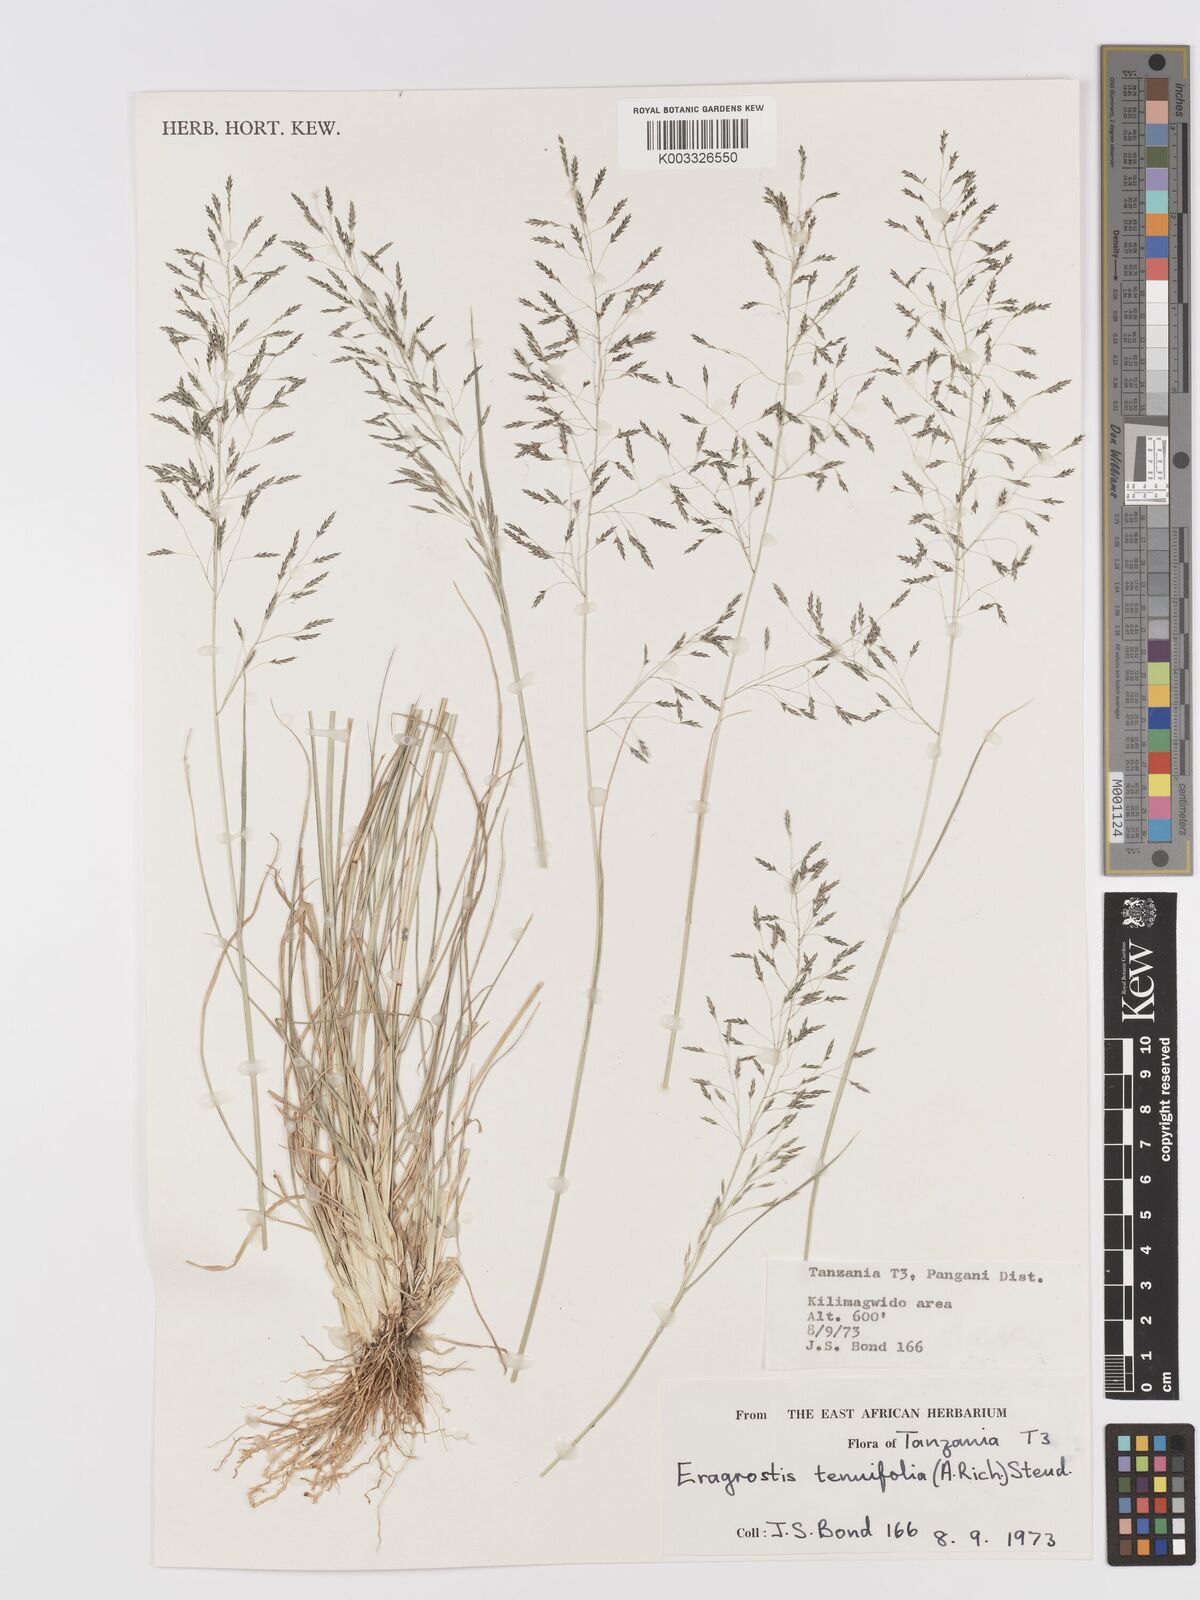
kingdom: Plantae
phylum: Tracheophyta
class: Liliopsida
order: Poales
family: Poaceae
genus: Eragrostis
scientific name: Eragrostis tenuifolia
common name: Elastic grass
